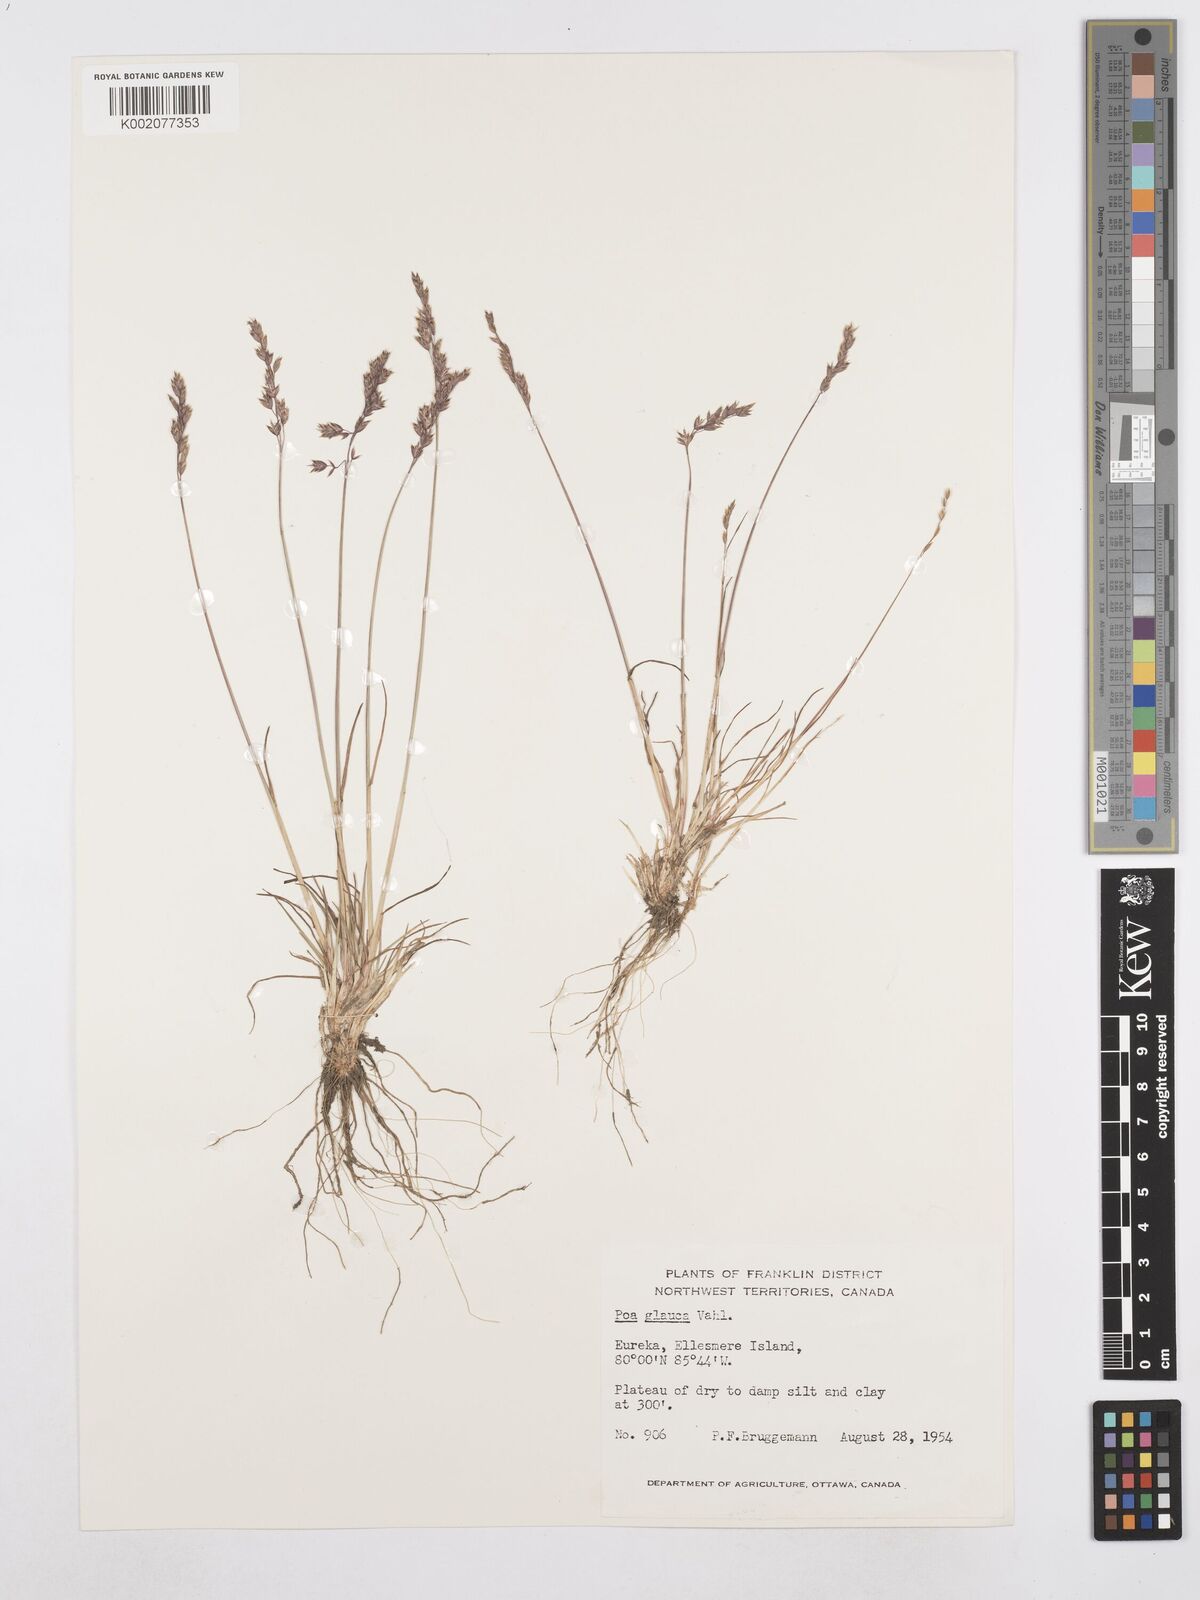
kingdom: Plantae
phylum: Tracheophyta
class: Liliopsida
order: Poales
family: Poaceae
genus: Poa
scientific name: Poa glauca
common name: Glaucous bluegrass
